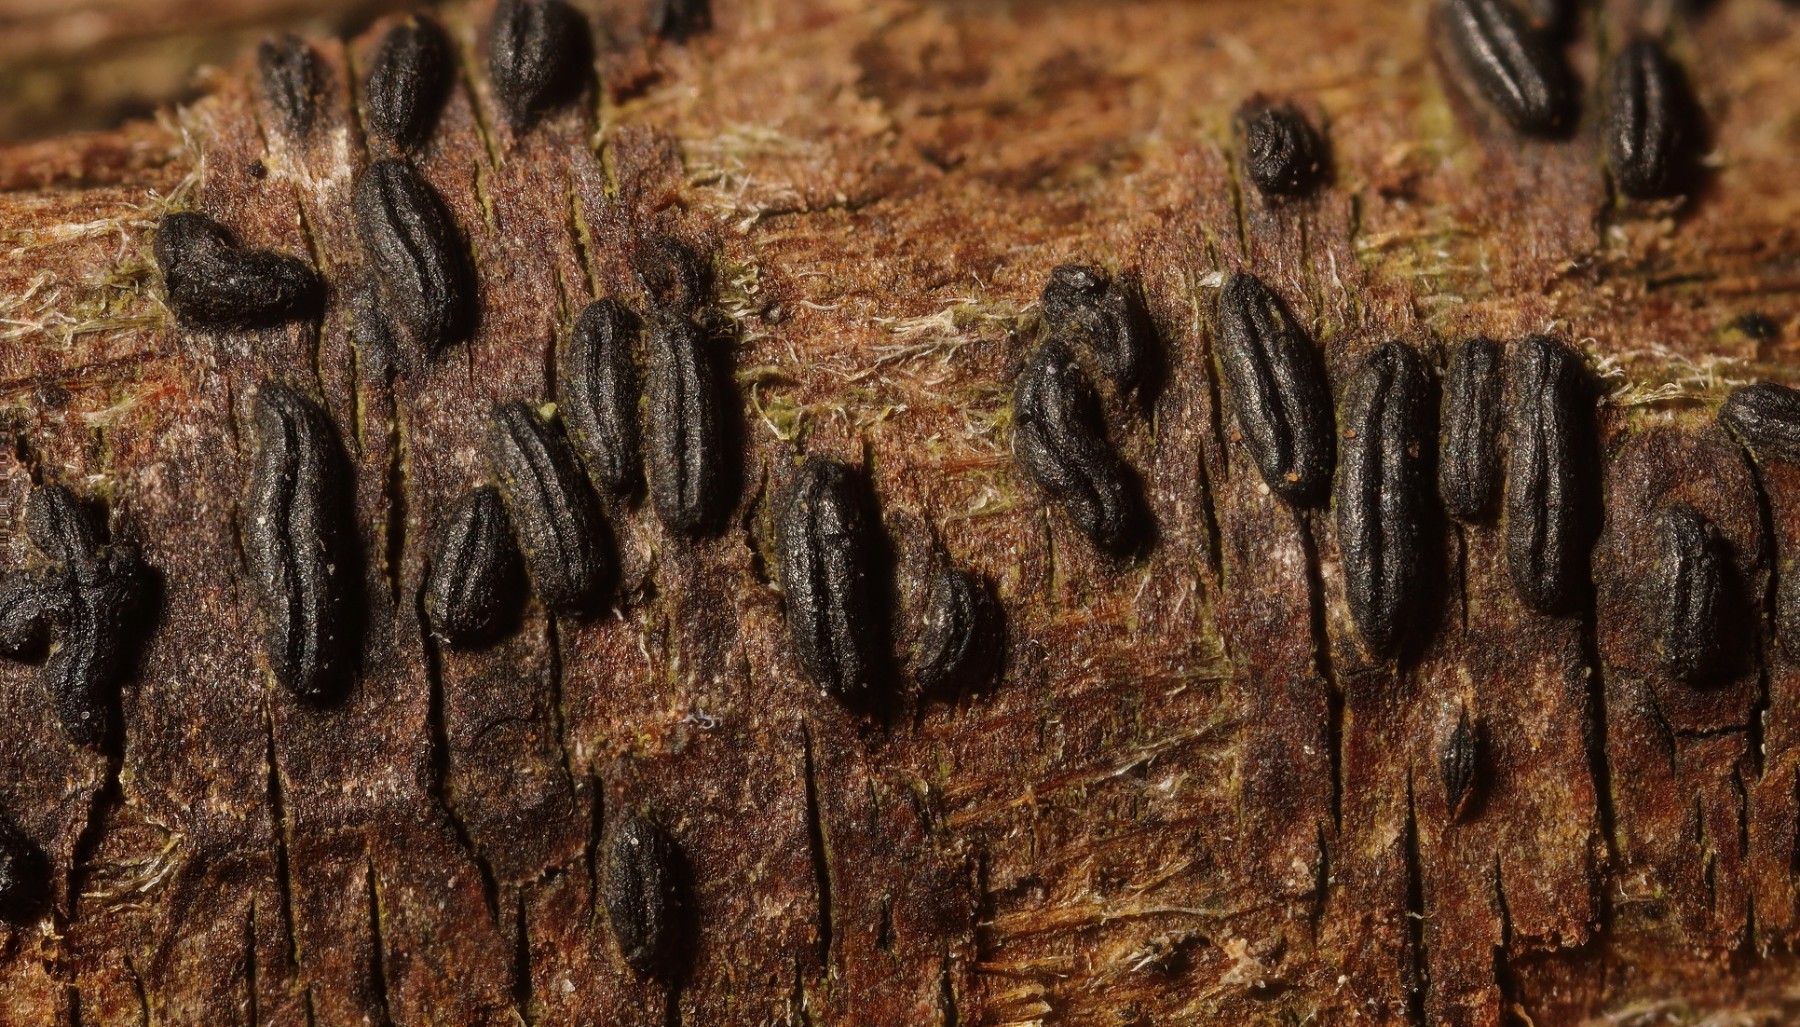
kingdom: Fungi
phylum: Ascomycota
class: Dothideomycetes
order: Hysteriales
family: Hysteriaceae
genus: Hysterobrevium
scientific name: Hysterobrevium smilacis
